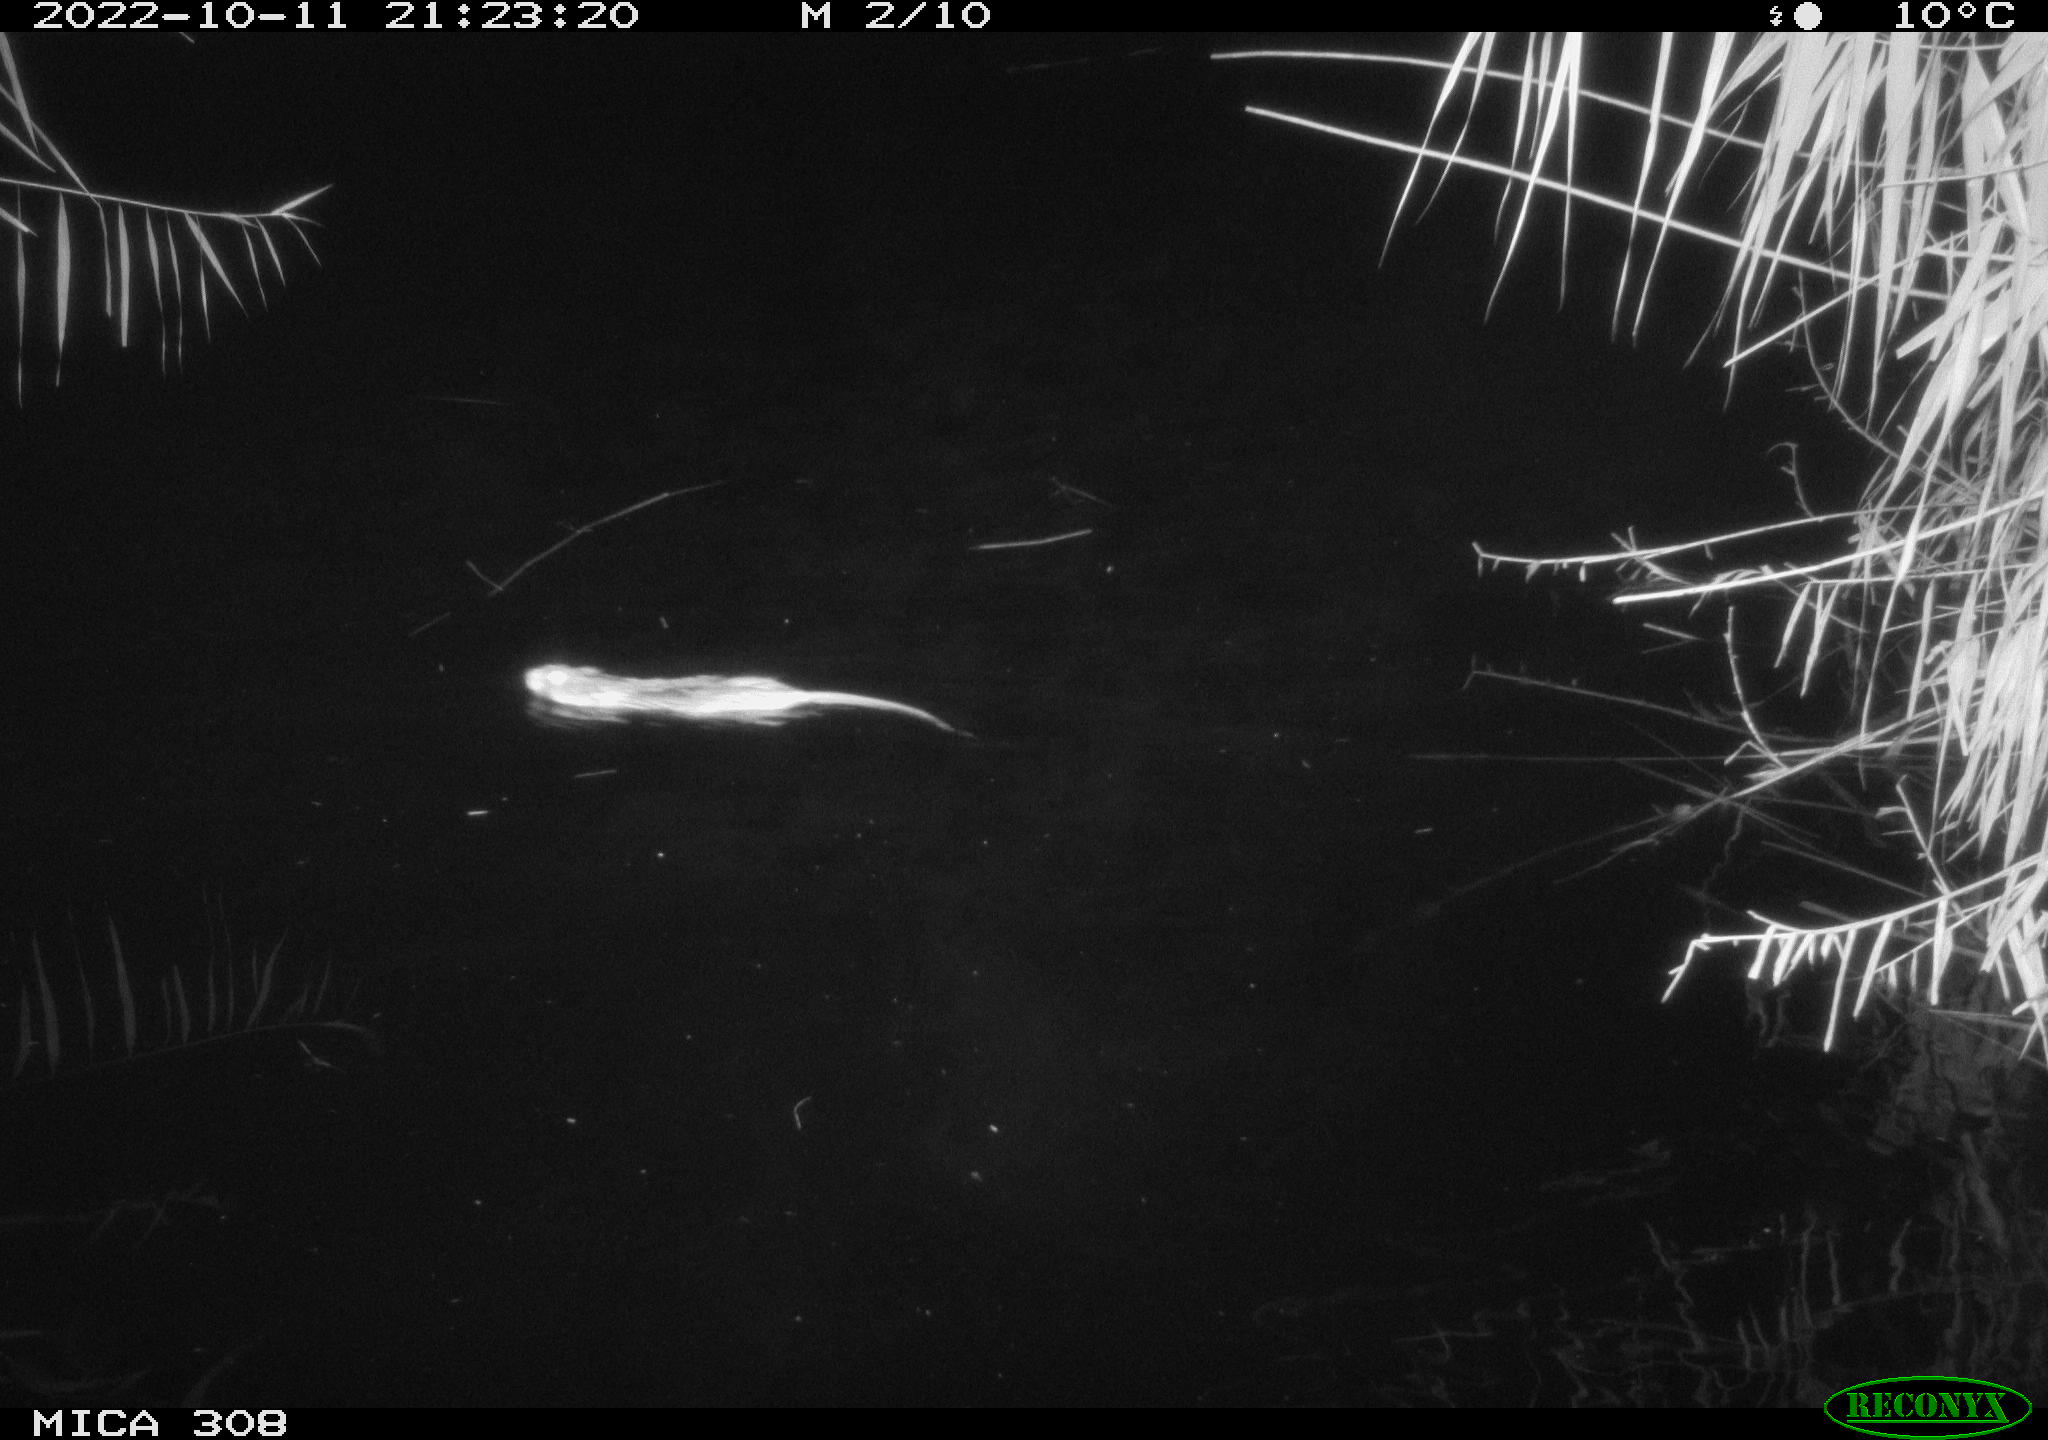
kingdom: Animalia
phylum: Chordata
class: Mammalia
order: Rodentia
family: Muridae
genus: Rattus
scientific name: Rattus norvegicus
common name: Brown rat
